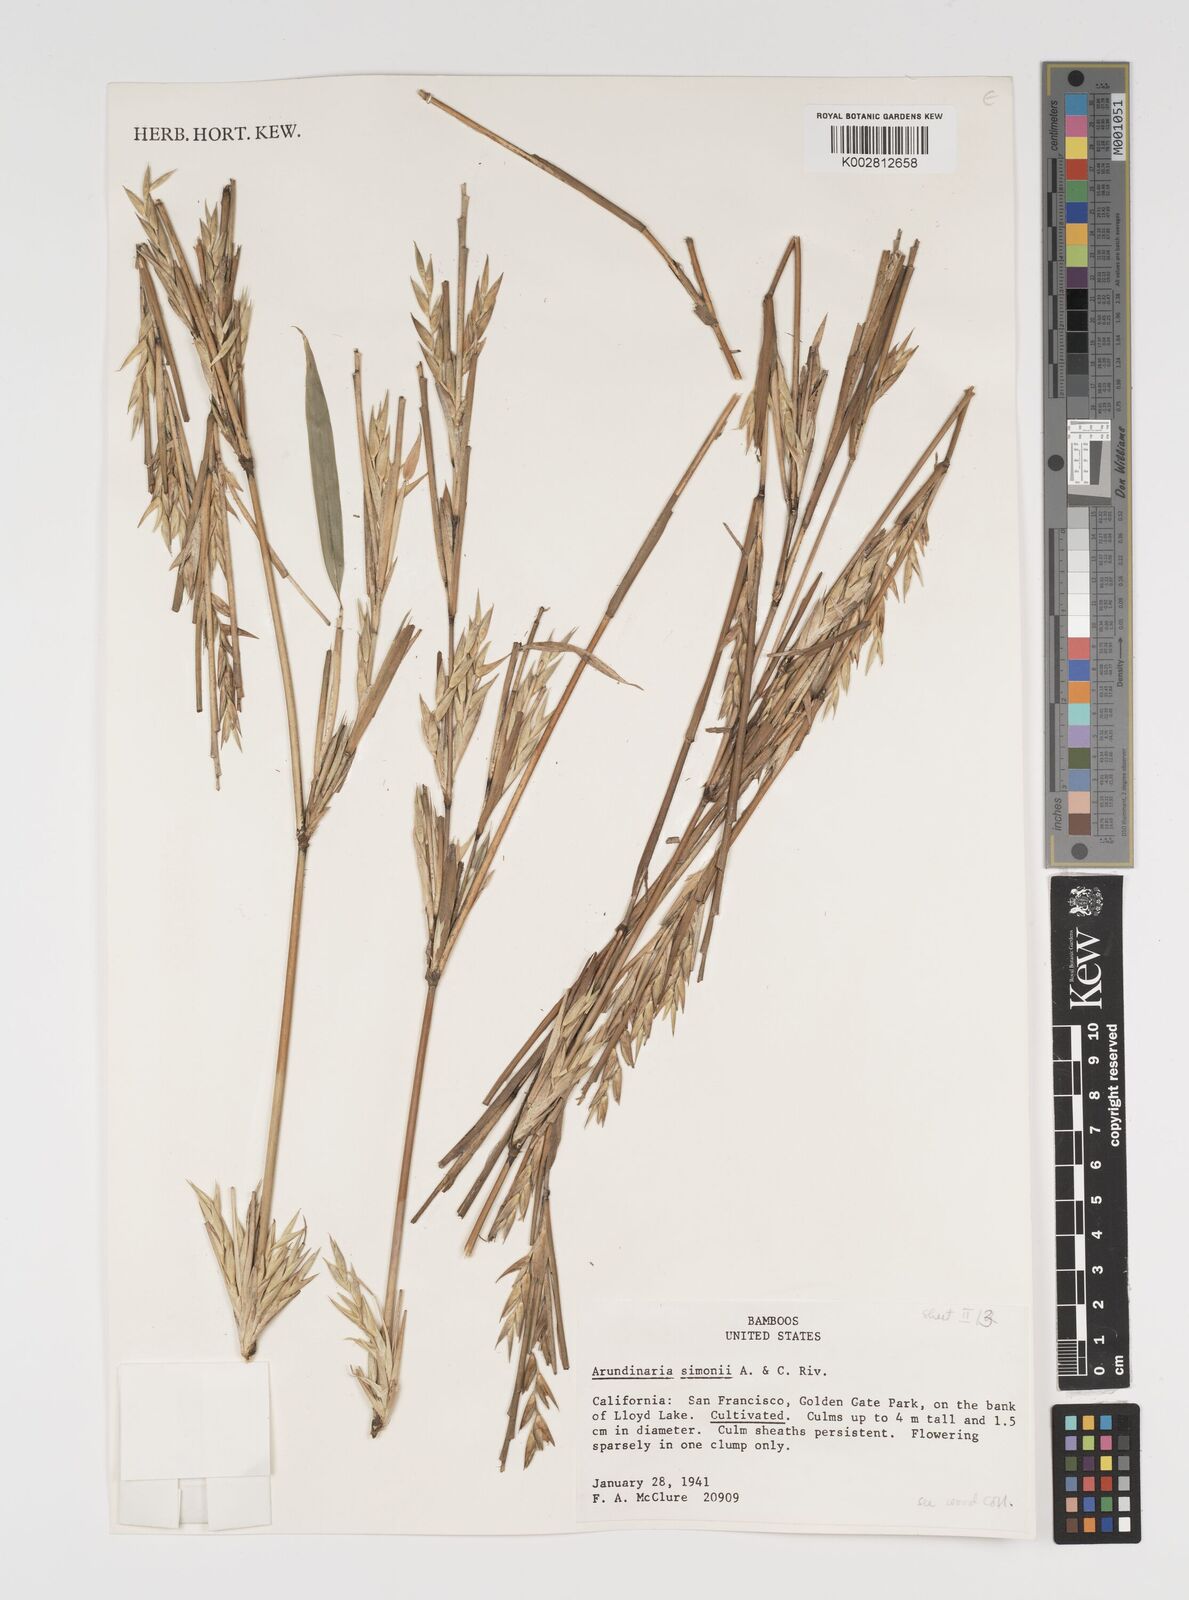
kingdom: Plantae
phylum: Tracheophyta
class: Liliopsida
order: Poales
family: Poaceae
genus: Pleioblastus
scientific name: Pleioblastus simonii
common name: Simon bamboo
